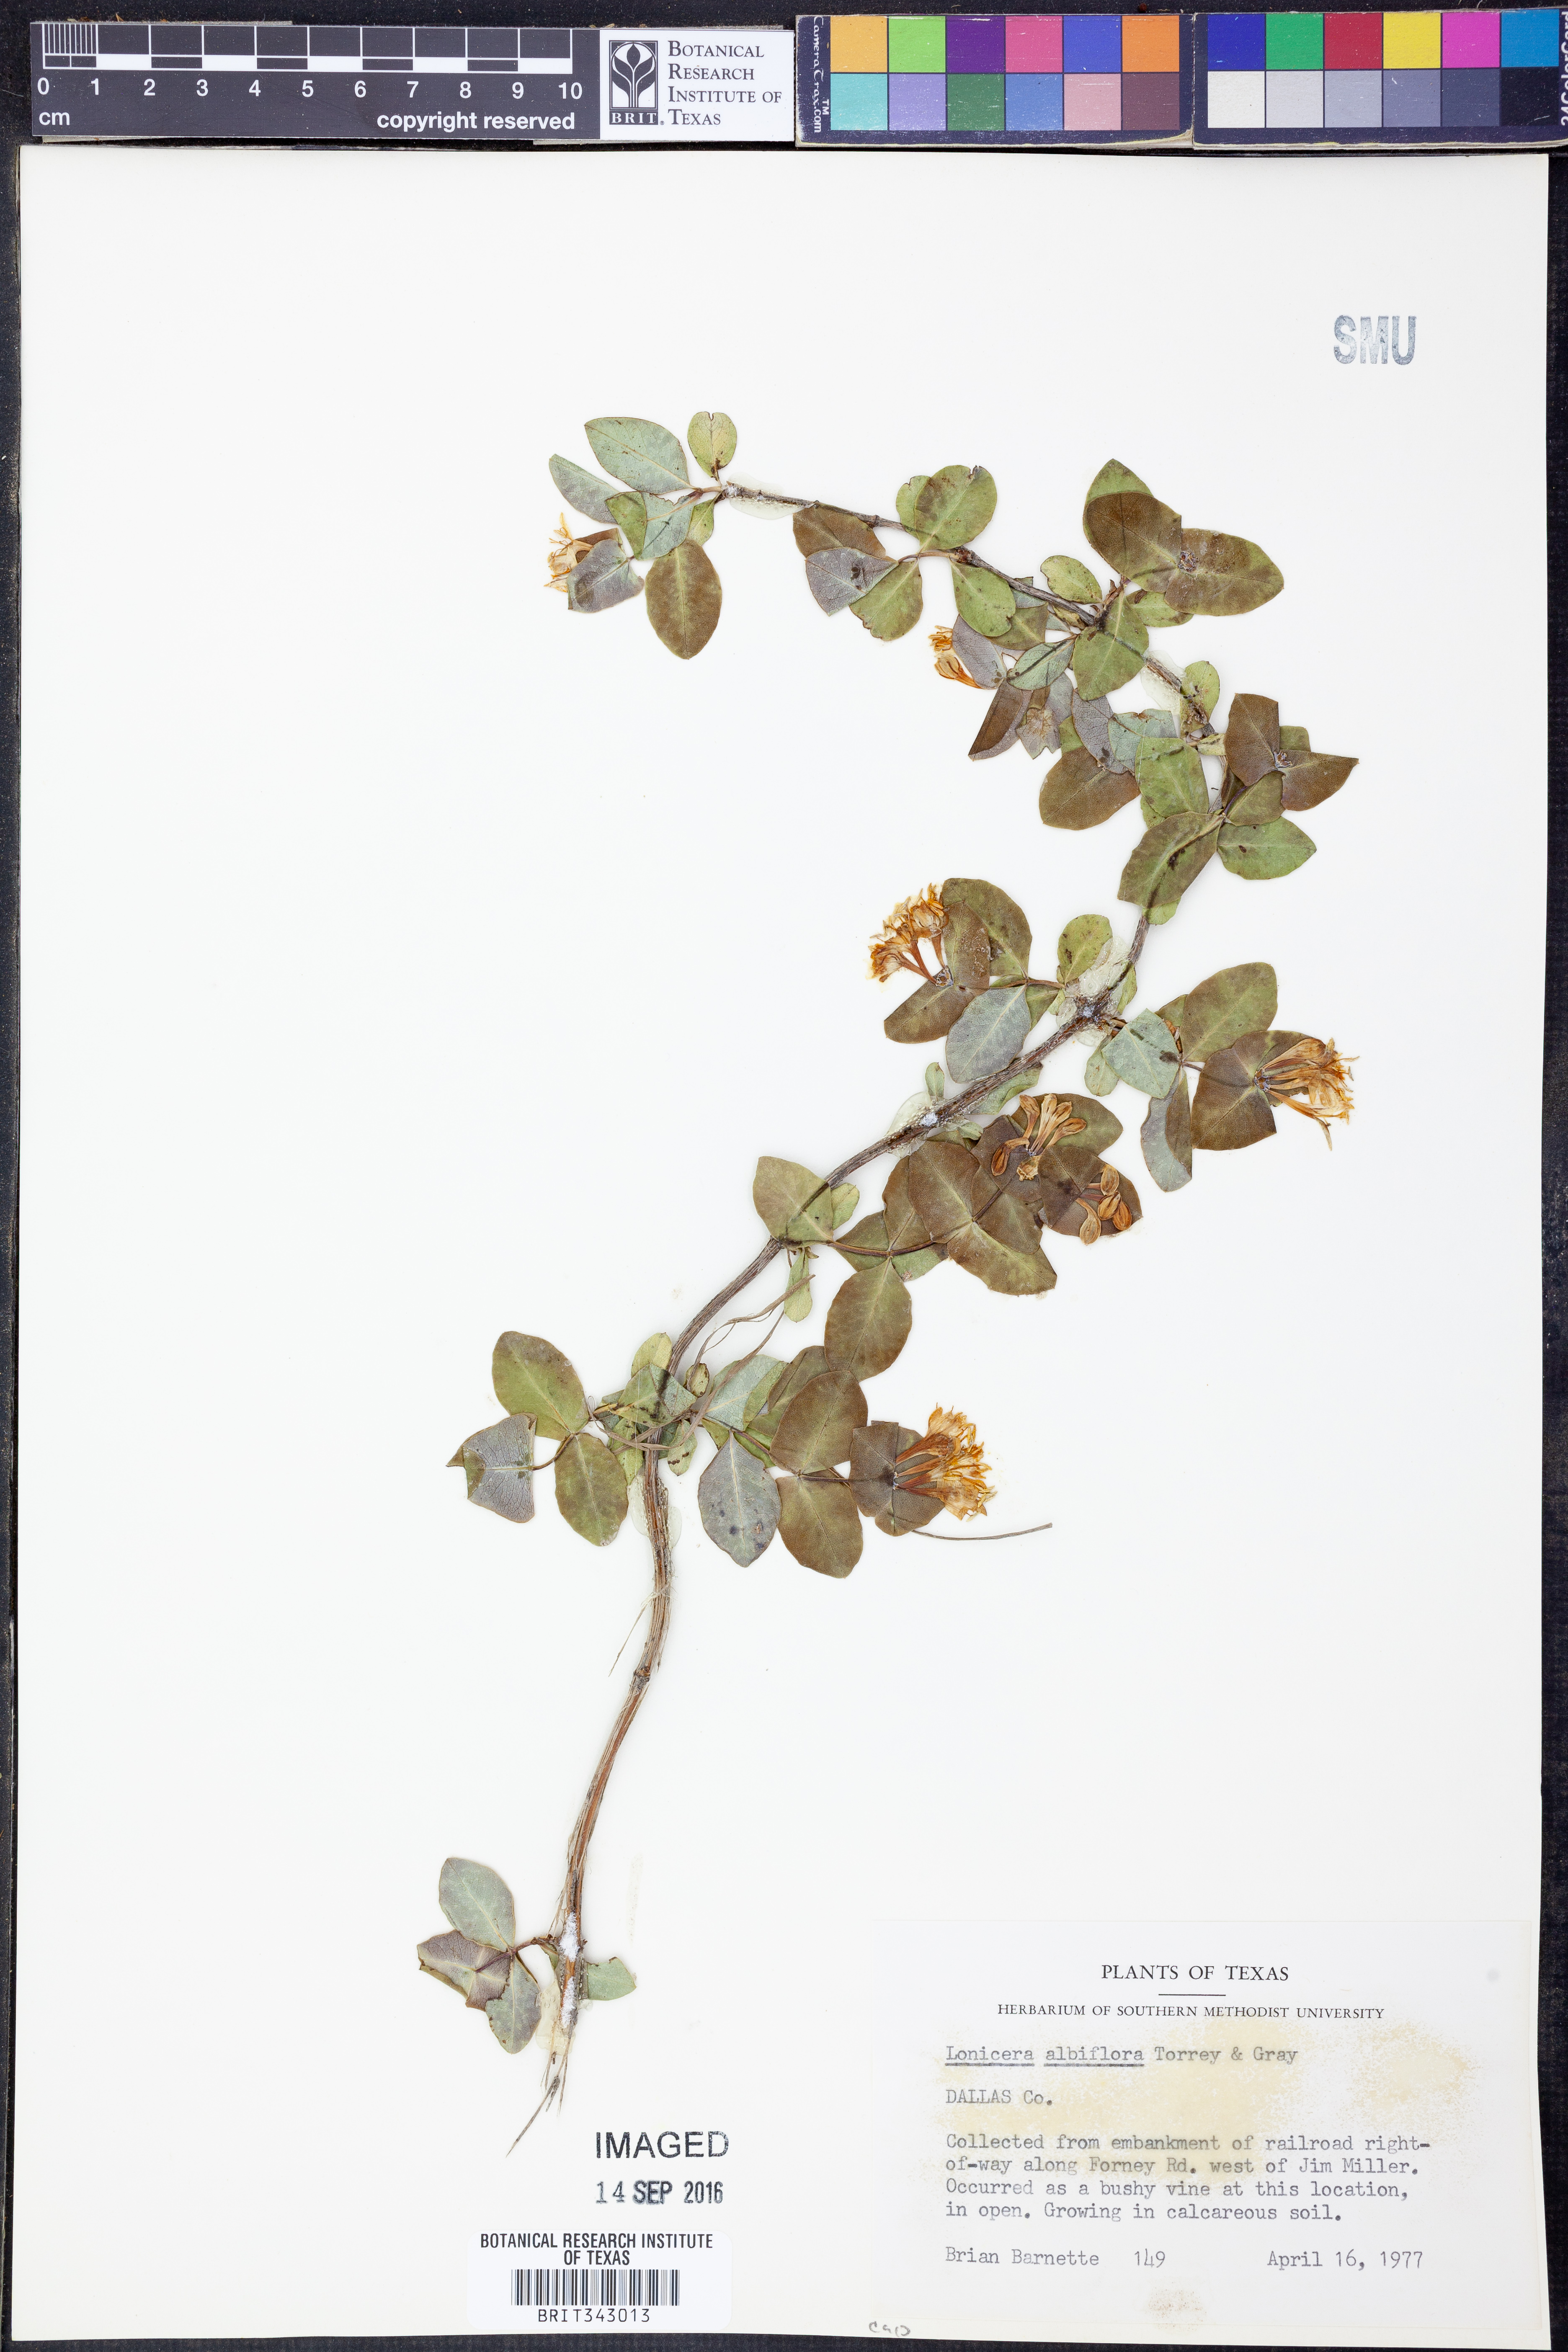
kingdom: Plantae
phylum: Tracheophyta
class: Magnoliopsida
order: Dipsacales
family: Caprifoliaceae
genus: Lonicera
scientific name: Lonicera albiflora
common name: White honeysuckle
